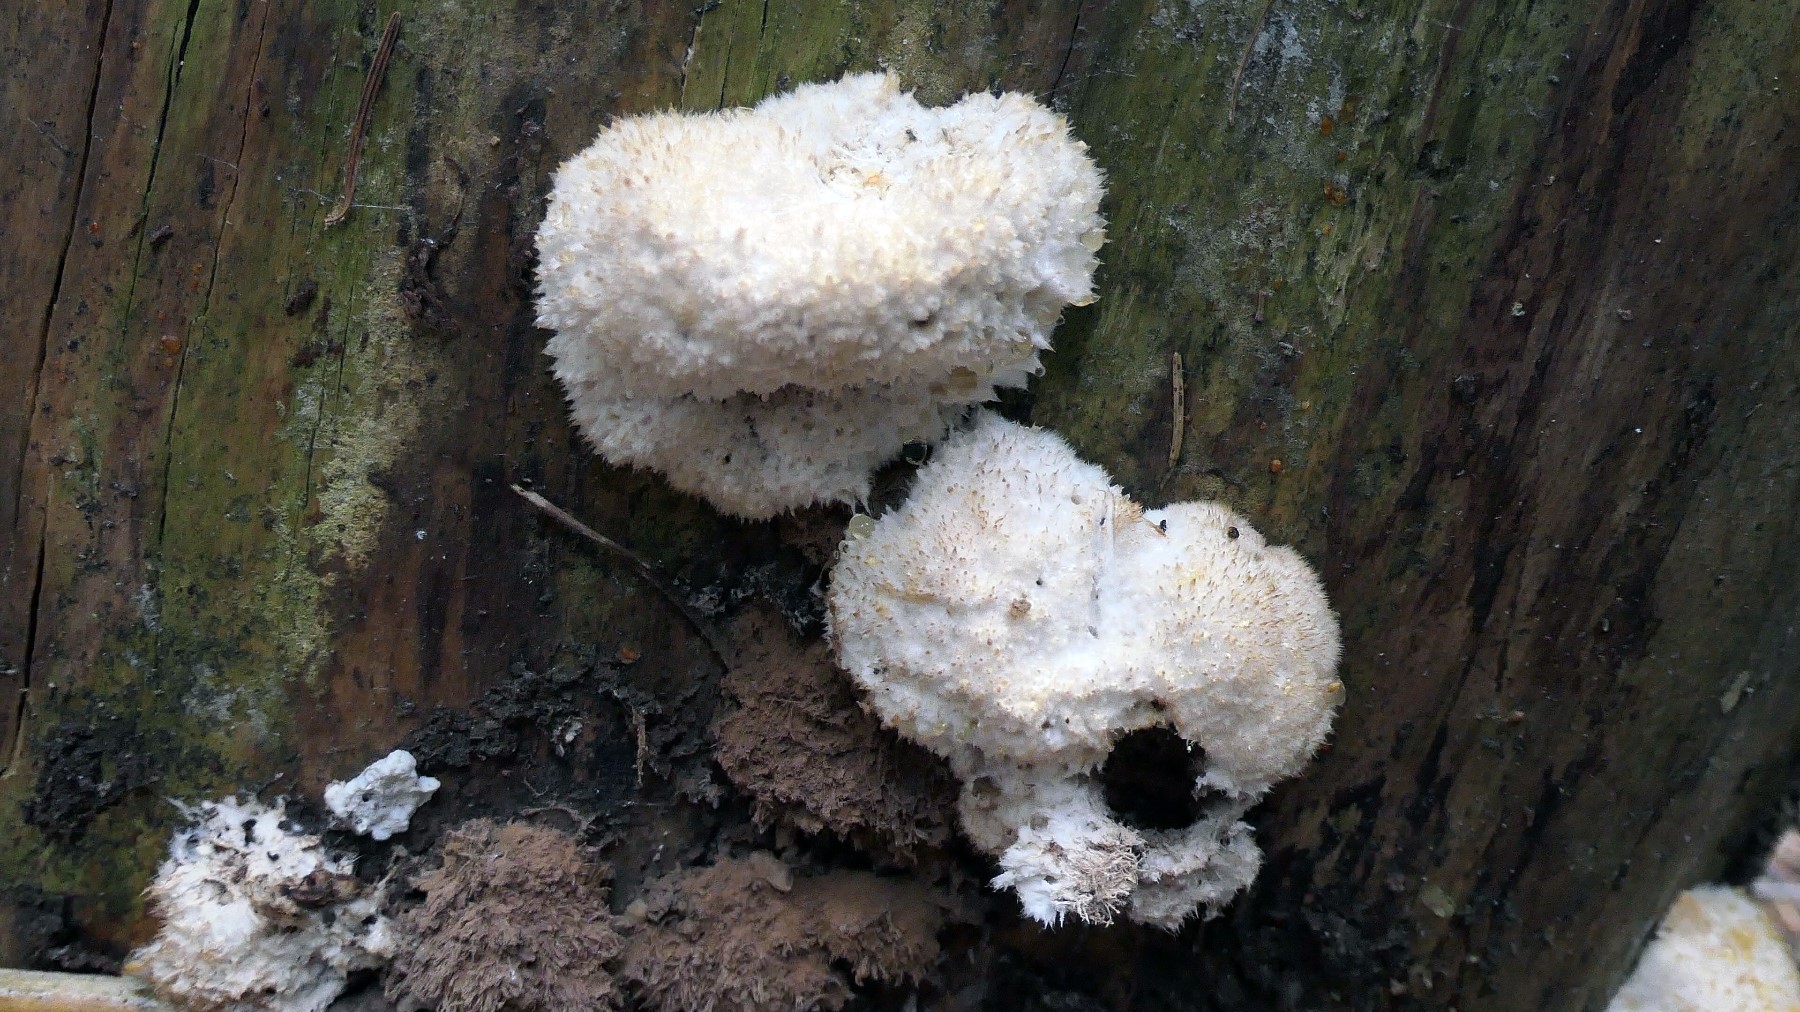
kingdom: Fungi
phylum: Basidiomycota
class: Agaricomycetes
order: Polyporales
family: Dacryobolaceae
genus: Postia
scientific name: Postia ptychogaster
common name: støvende kødporesvamp
